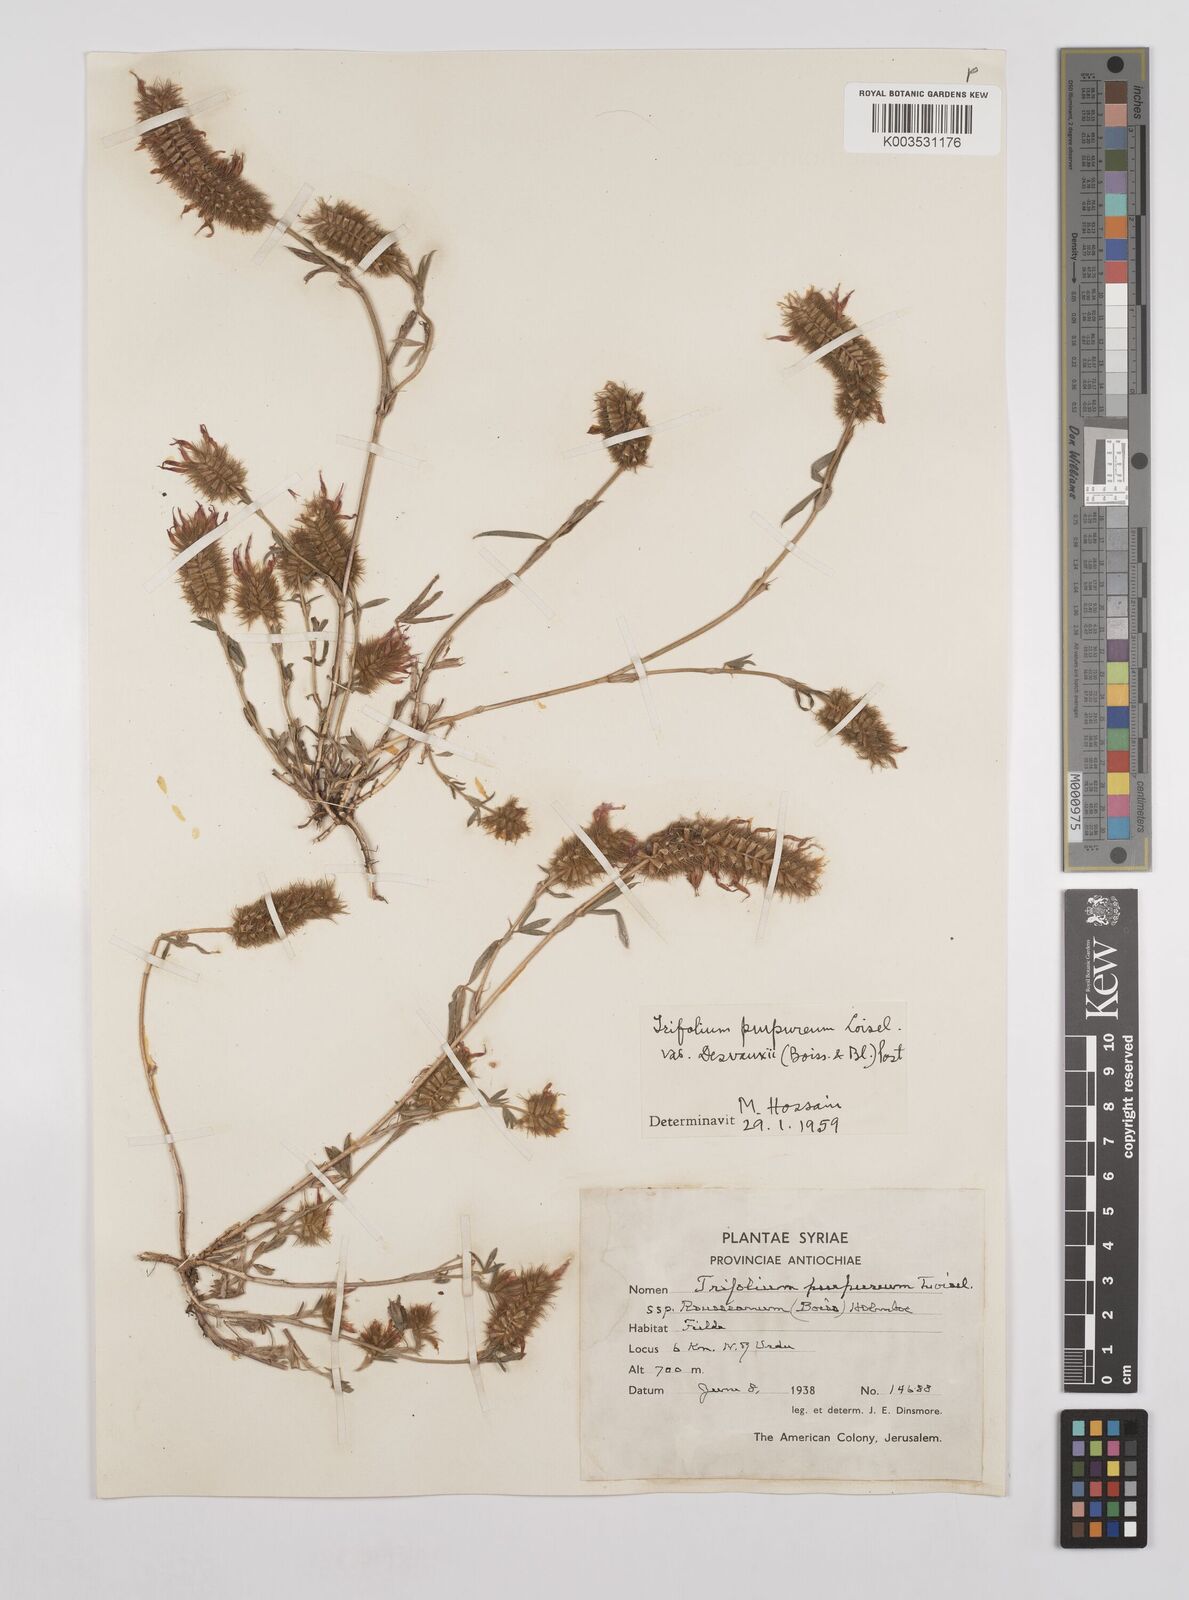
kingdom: Plantae
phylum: Tracheophyta
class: Magnoliopsida
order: Fabales
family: Fabaceae
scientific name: Fabaceae
